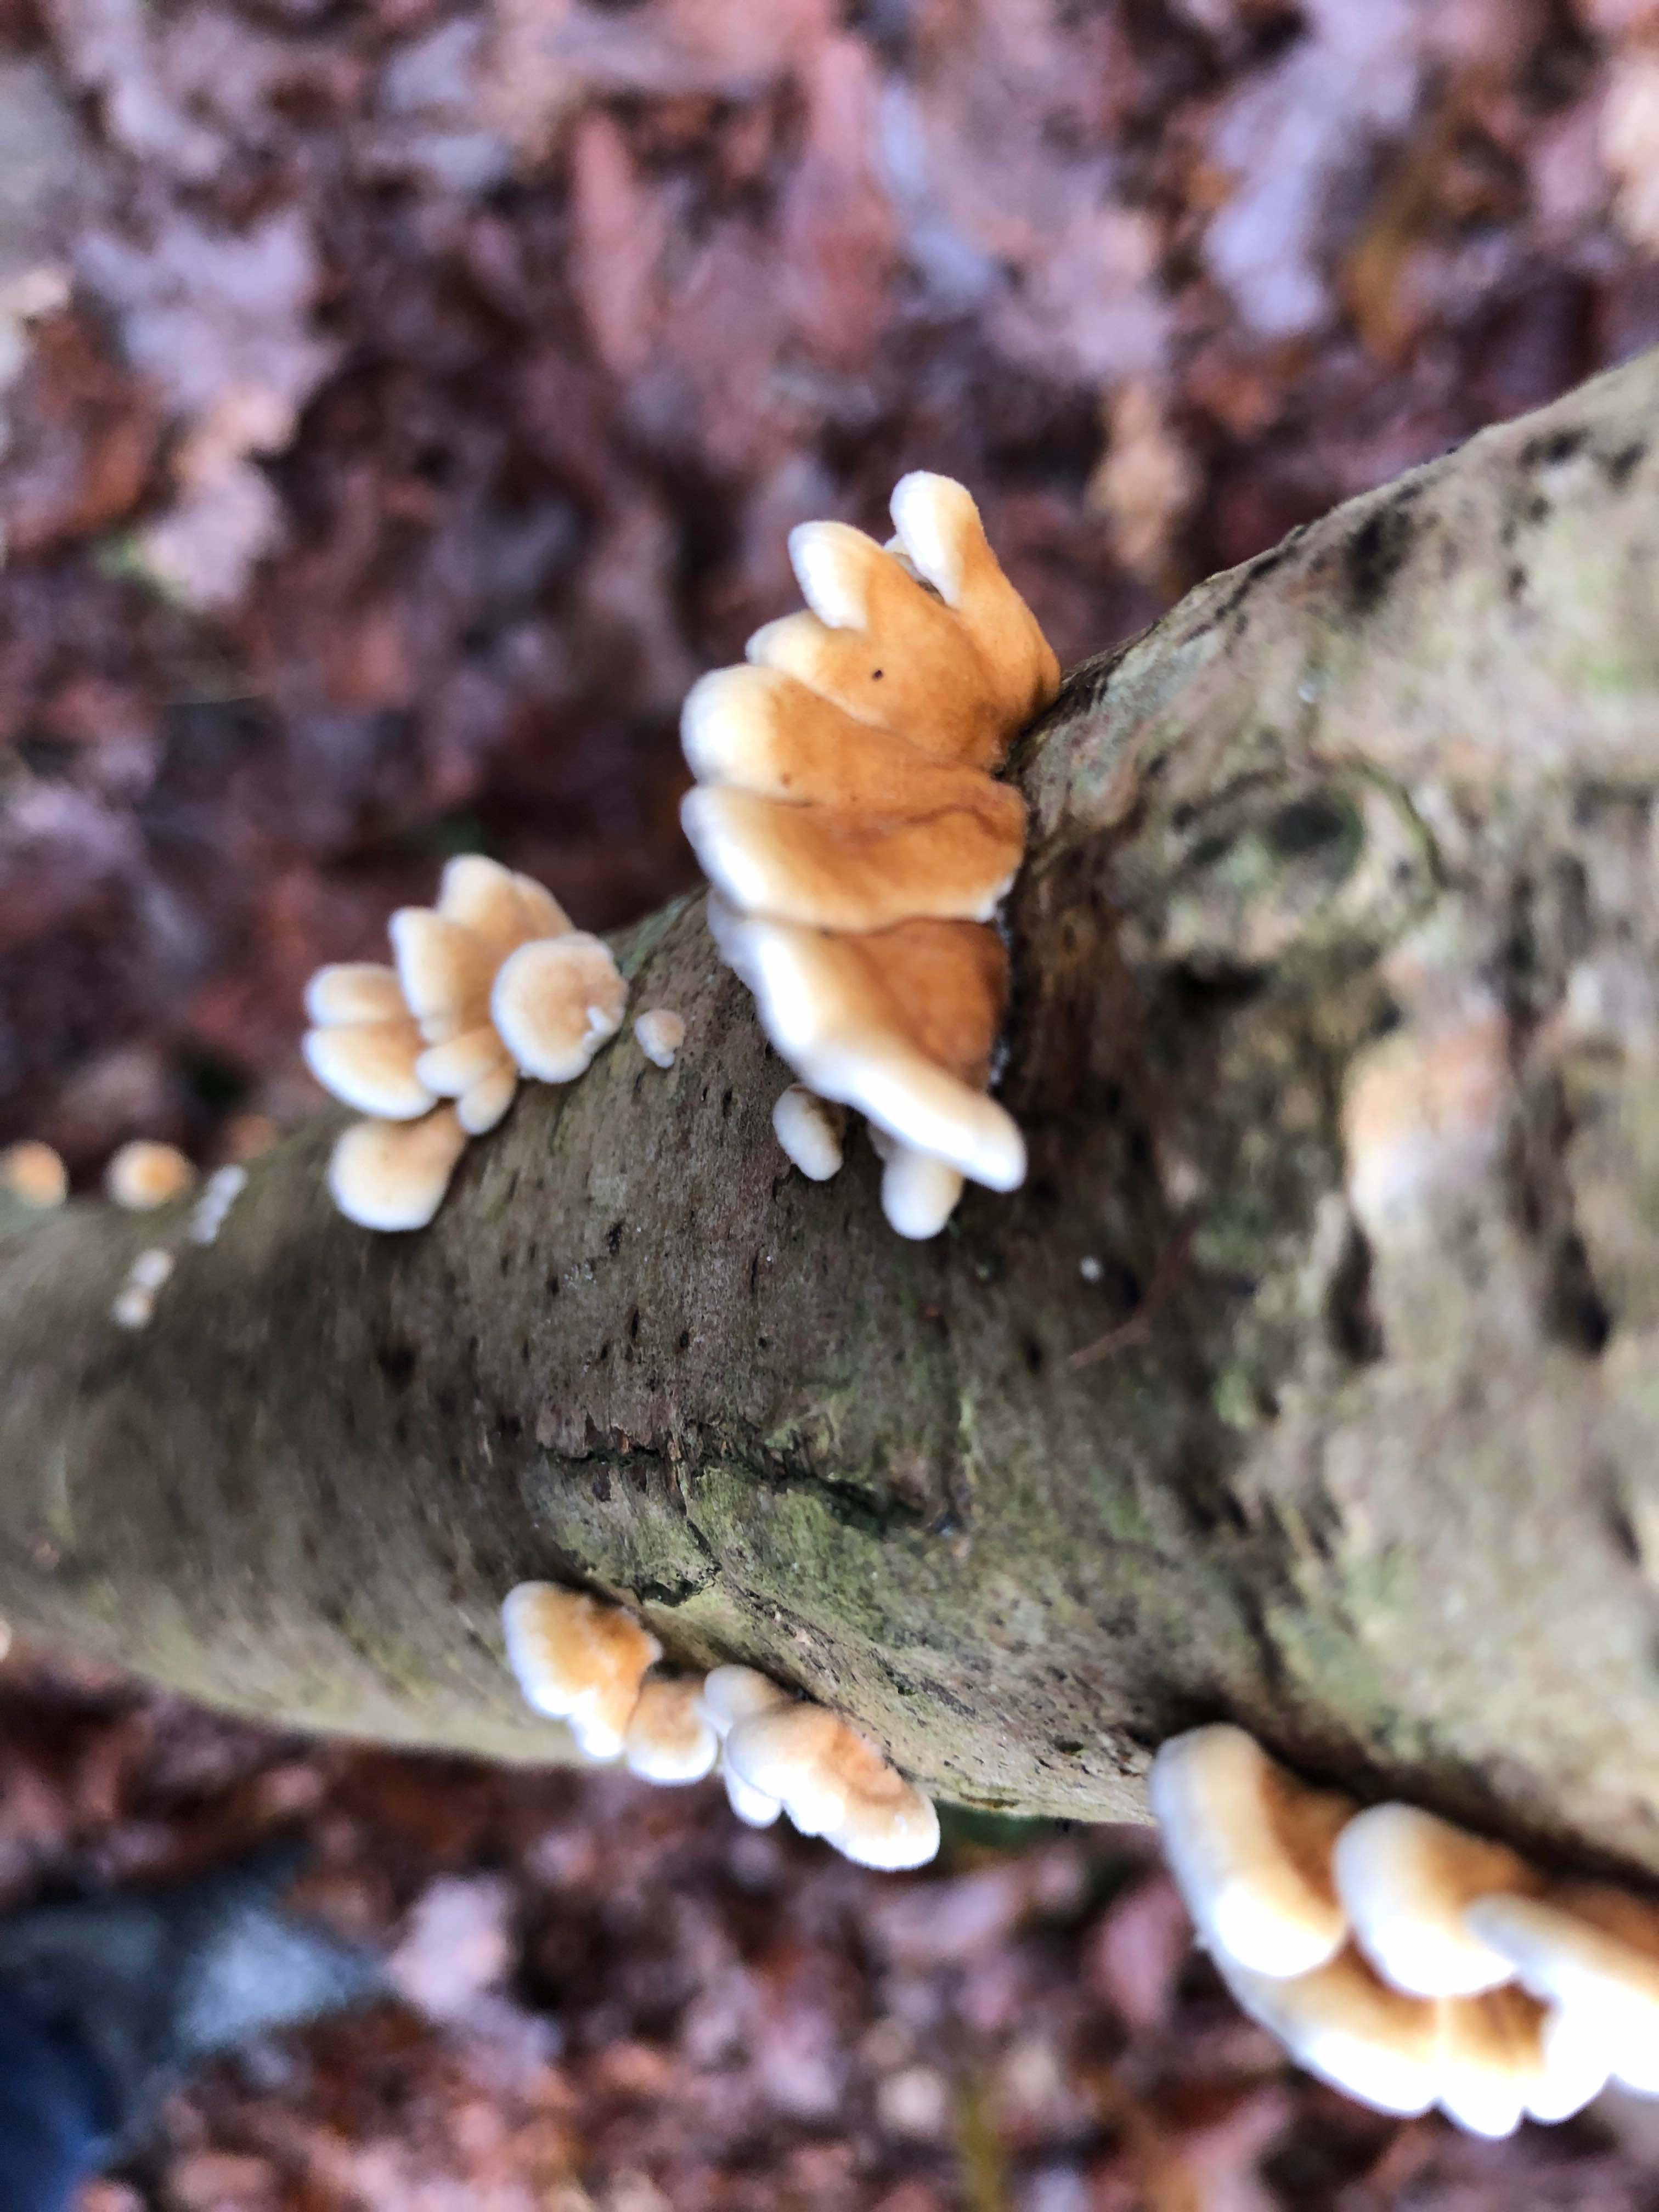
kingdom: Fungi
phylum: Basidiomycota
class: Agaricomycetes
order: Amylocorticiales
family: Amylocorticiaceae
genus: Plicaturopsis
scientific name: Plicaturopsis crispa
